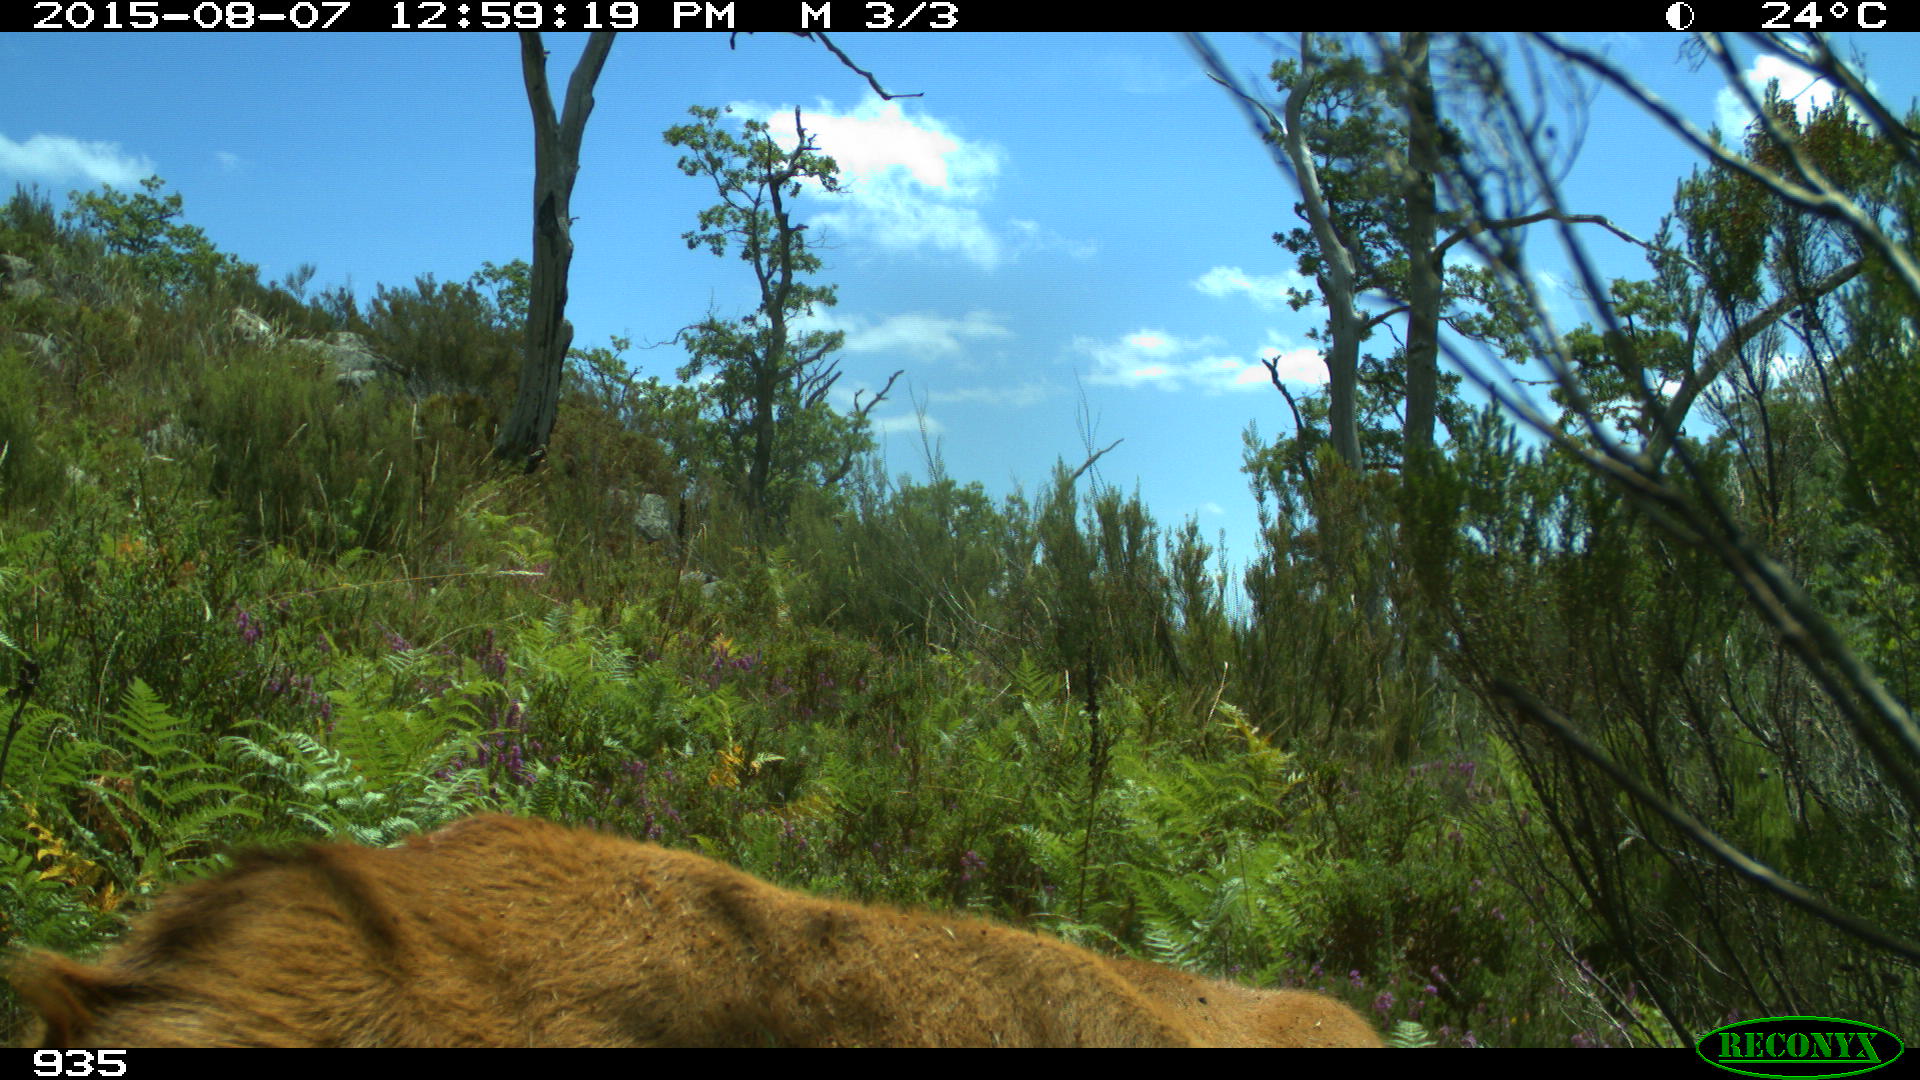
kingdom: Animalia
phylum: Chordata
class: Mammalia
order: Artiodactyla
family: Bovidae
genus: Bos
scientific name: Bos taurus
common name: Domesticated cattle
